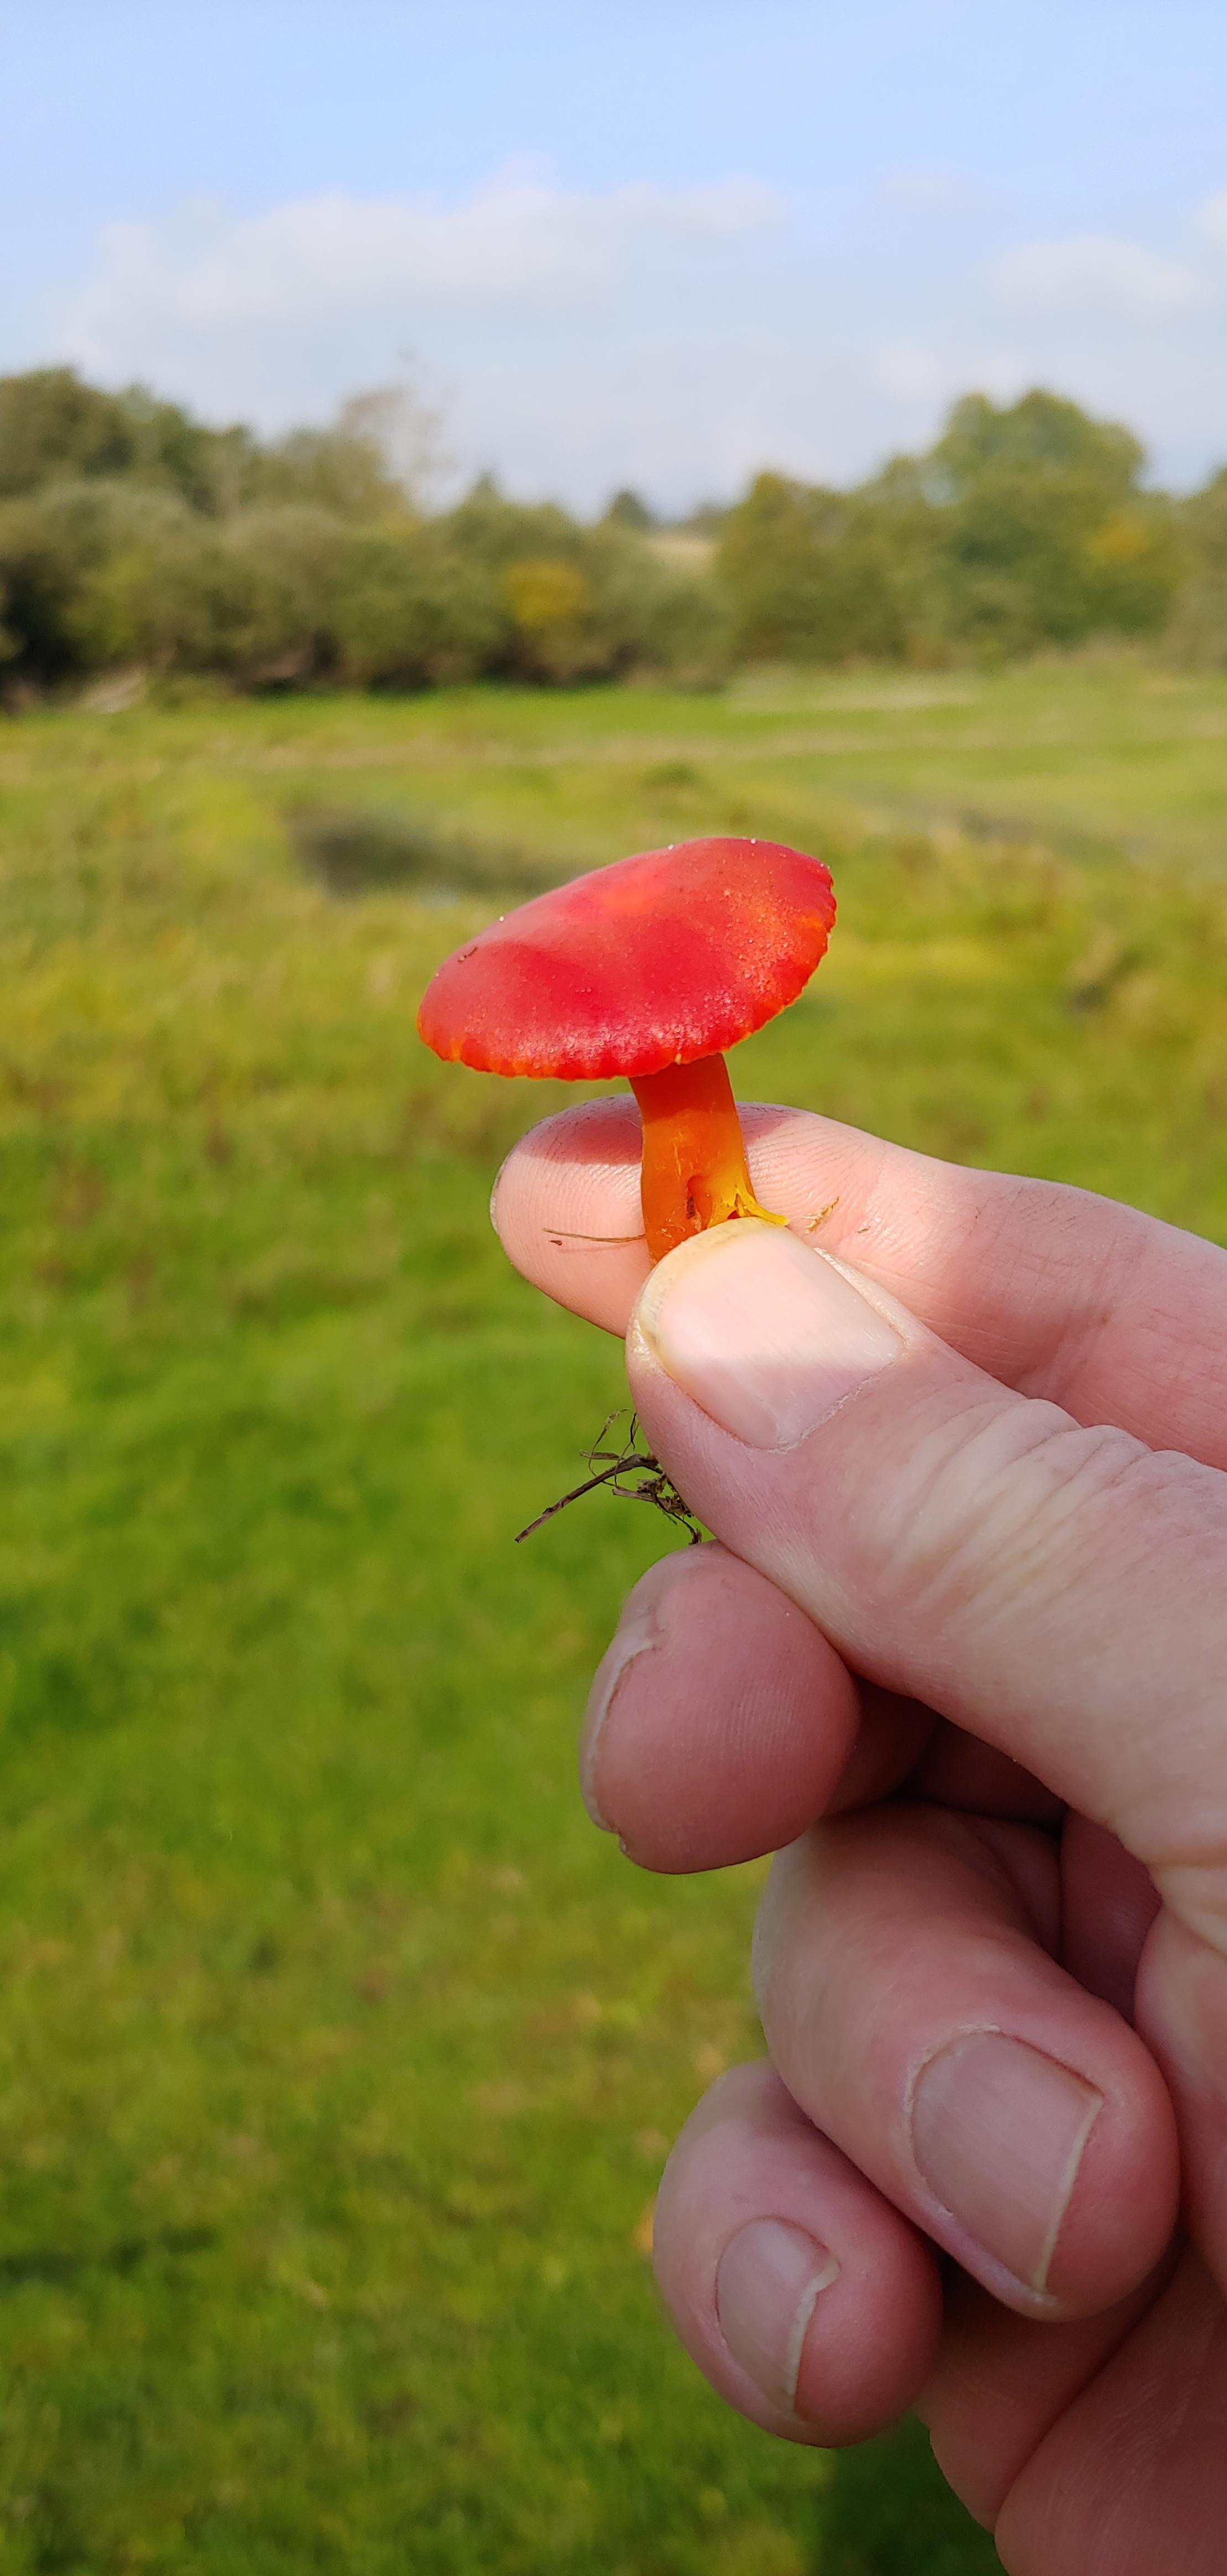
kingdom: Fungi
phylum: Basidiomycota
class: Agaricomycetes
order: Agaricales
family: Hygrophoraceae
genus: Hygrocybe
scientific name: Hygrocybe
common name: vokshat
